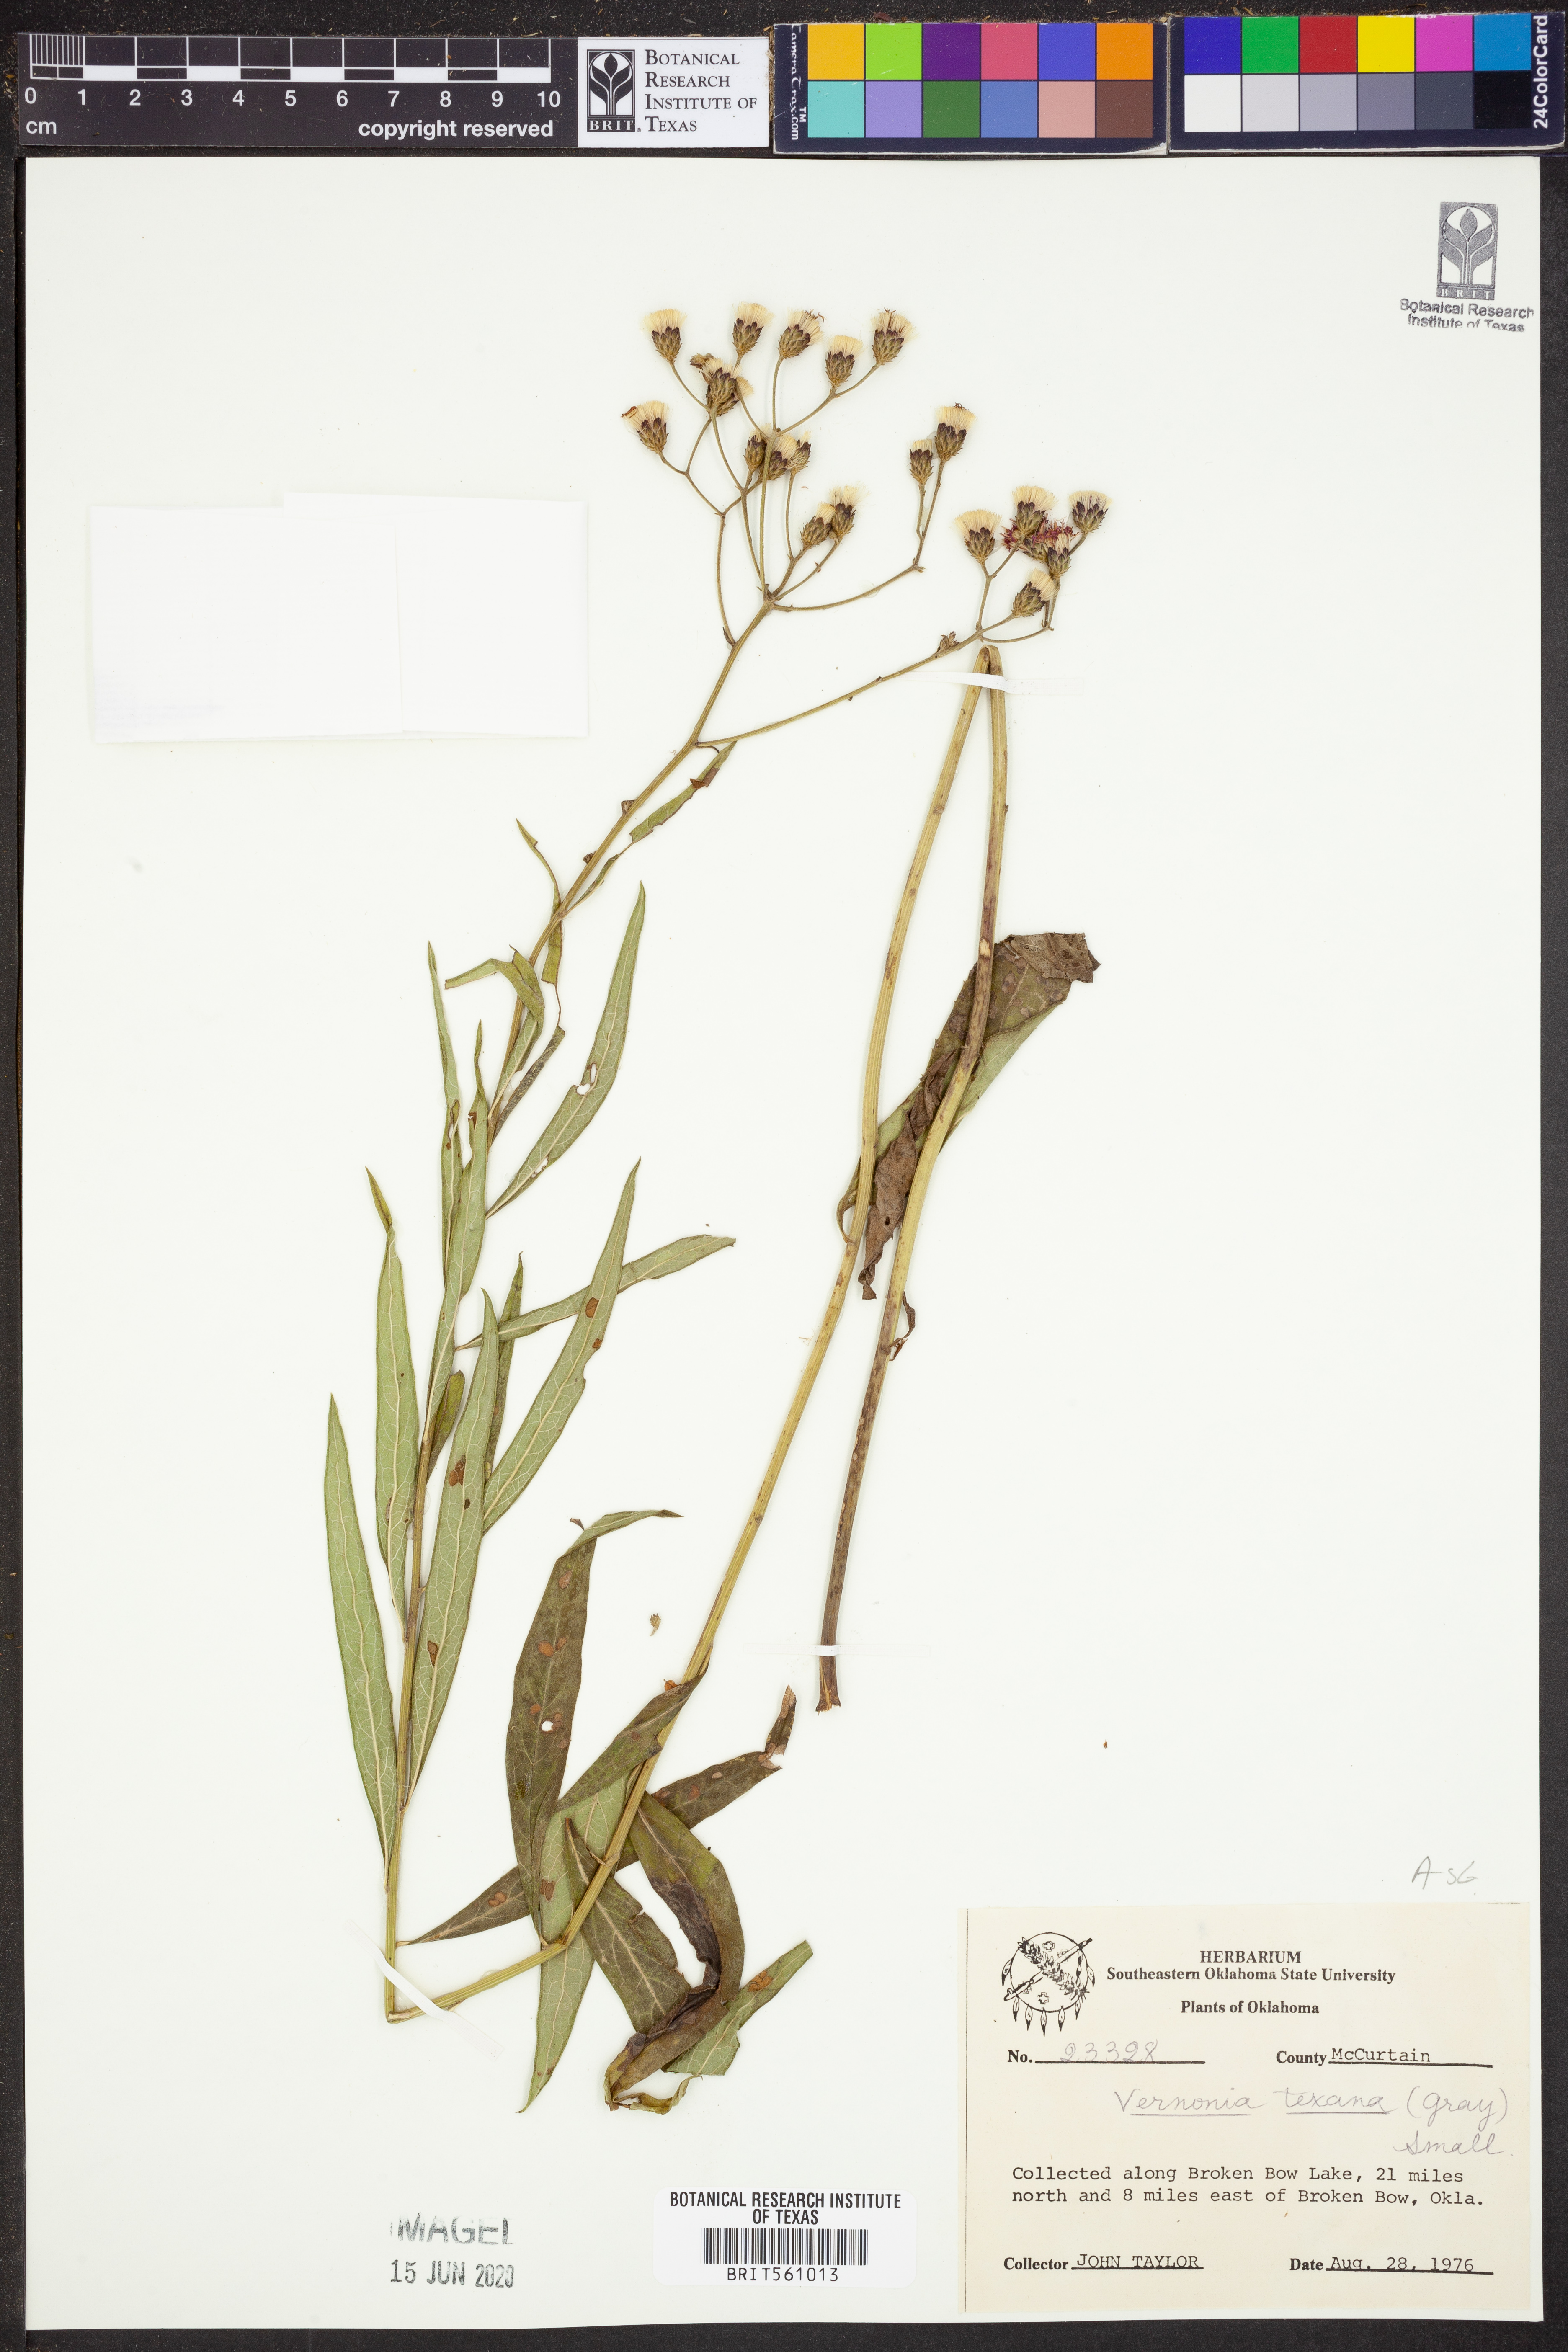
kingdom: Plantae
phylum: Tracheophyta
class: Magnoliopsida
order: Asterales
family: Asteraceae
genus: Vernonia
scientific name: Vernonia texana
